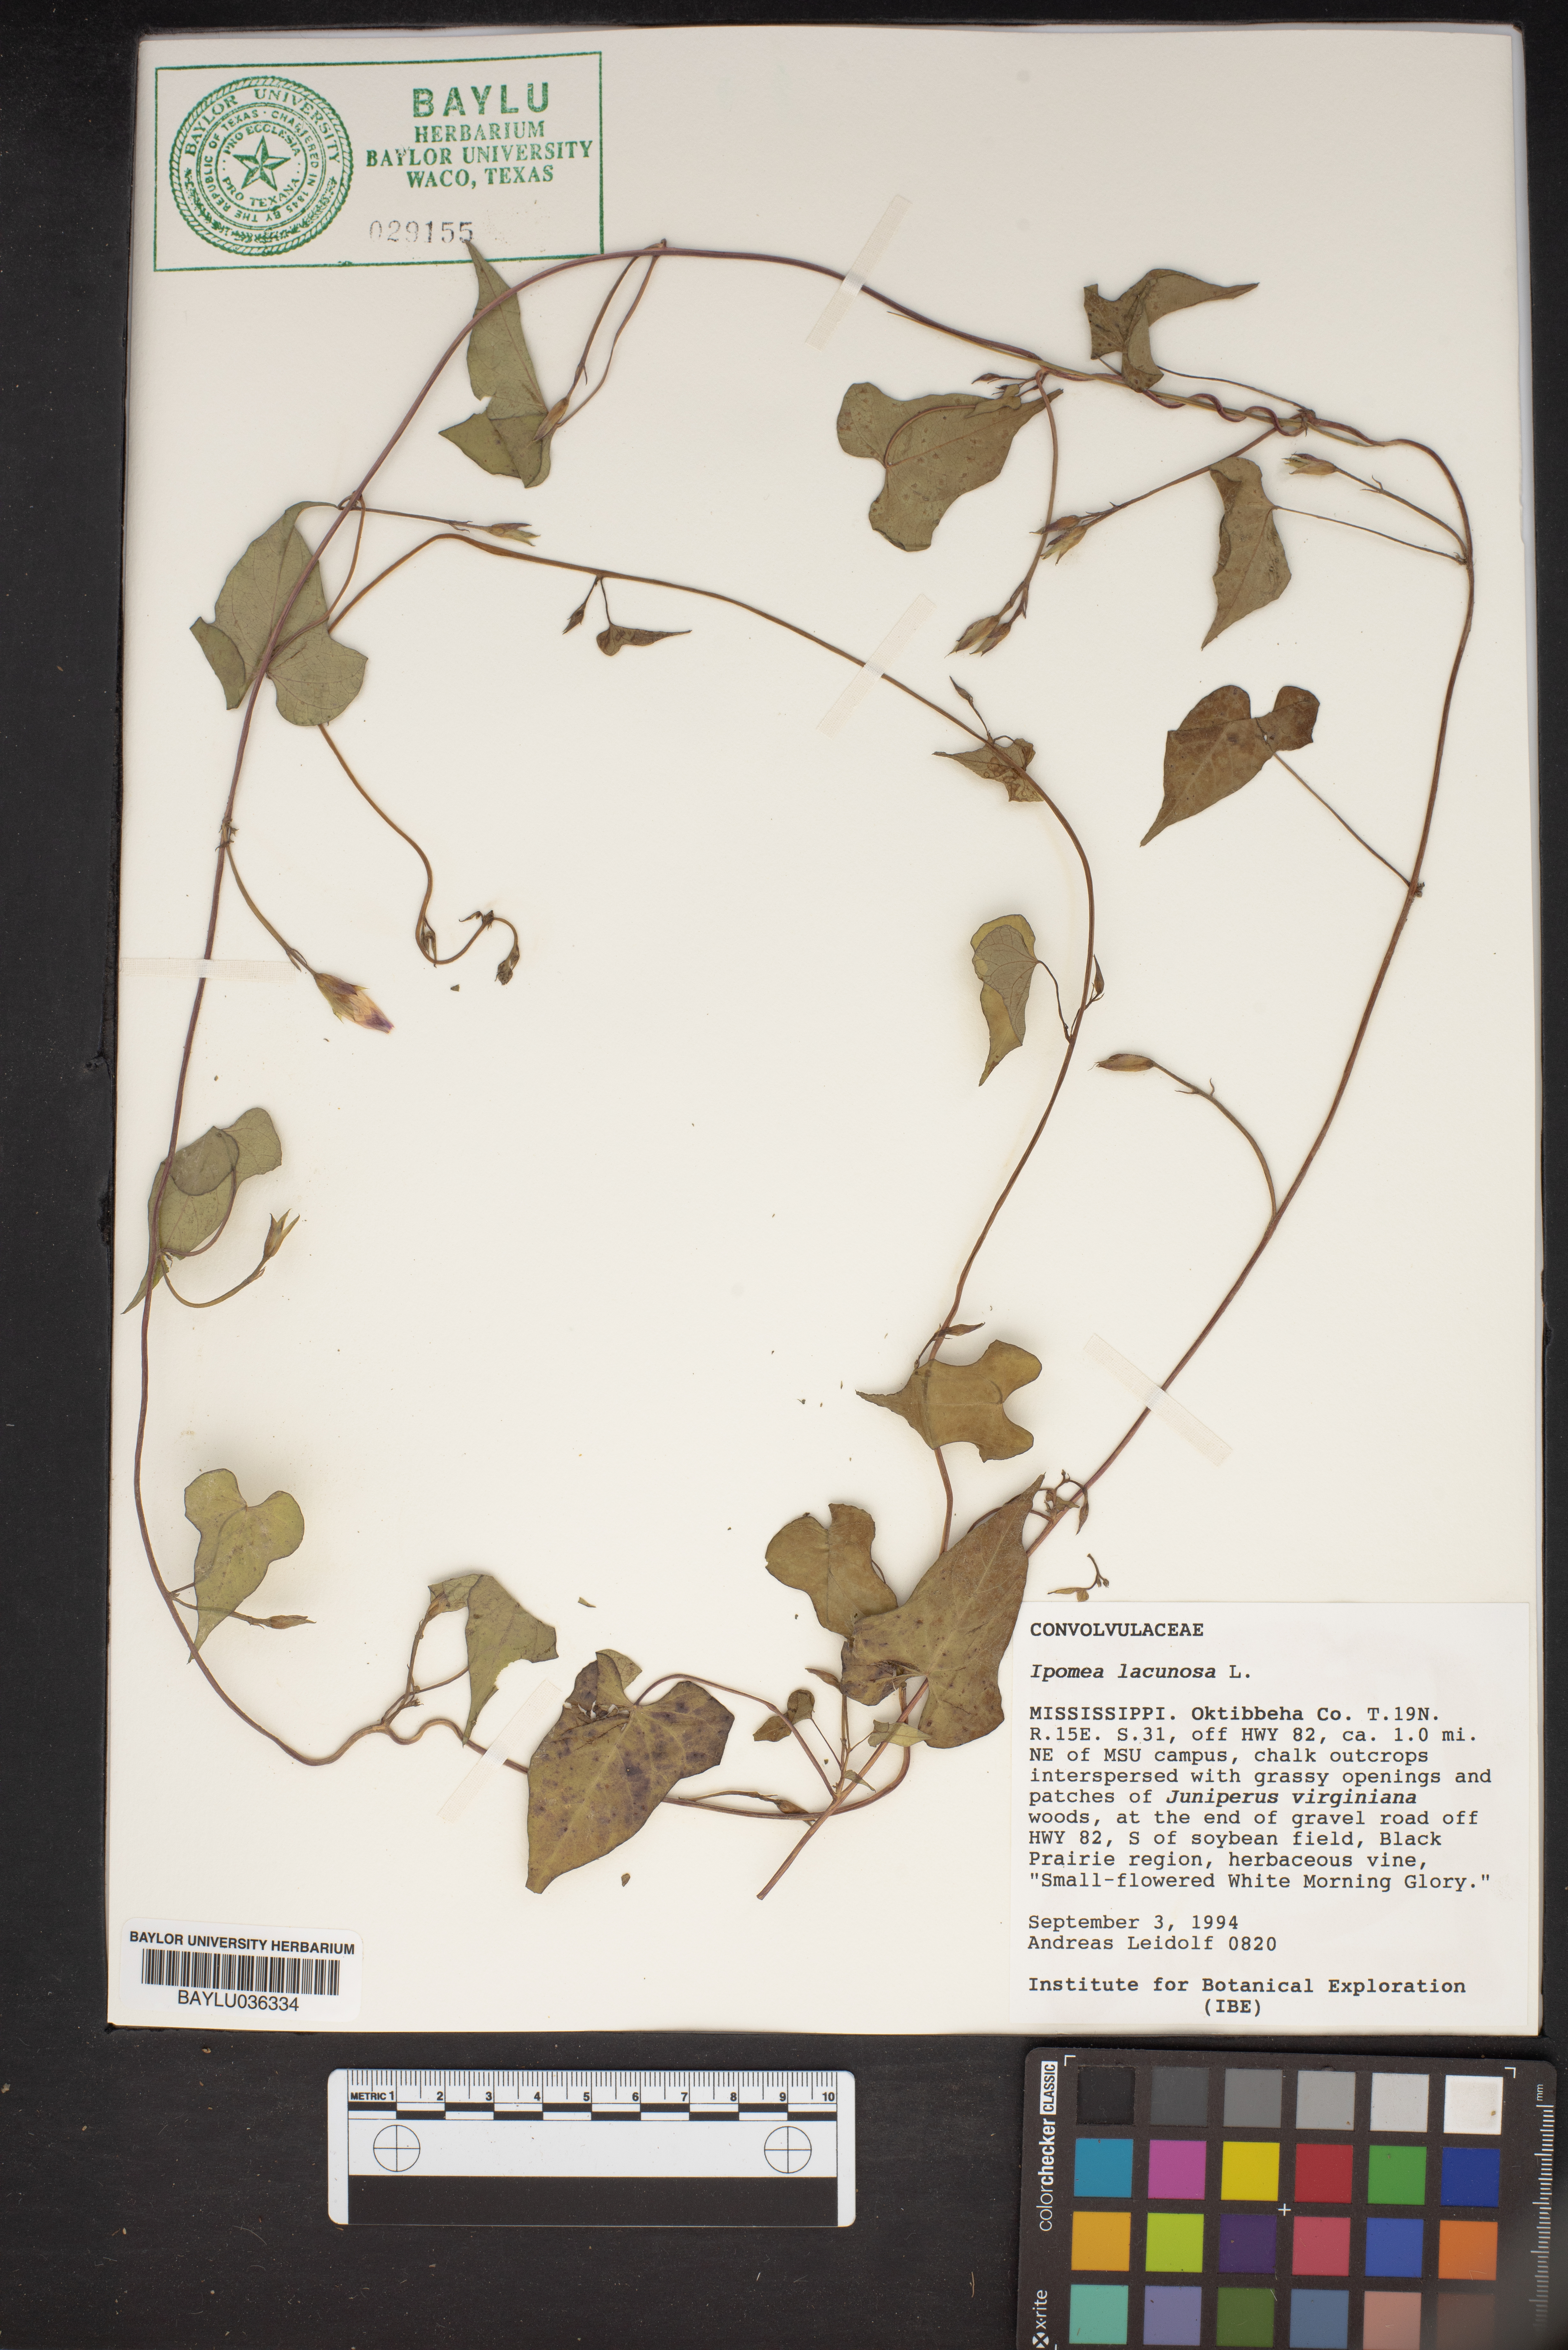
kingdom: Plantae
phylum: Tracheophyta
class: Magnoliopsida
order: Solanales
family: Convolvulaceae
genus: Ipomoea
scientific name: Ipomoea lacunosa
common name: White morning-glory
